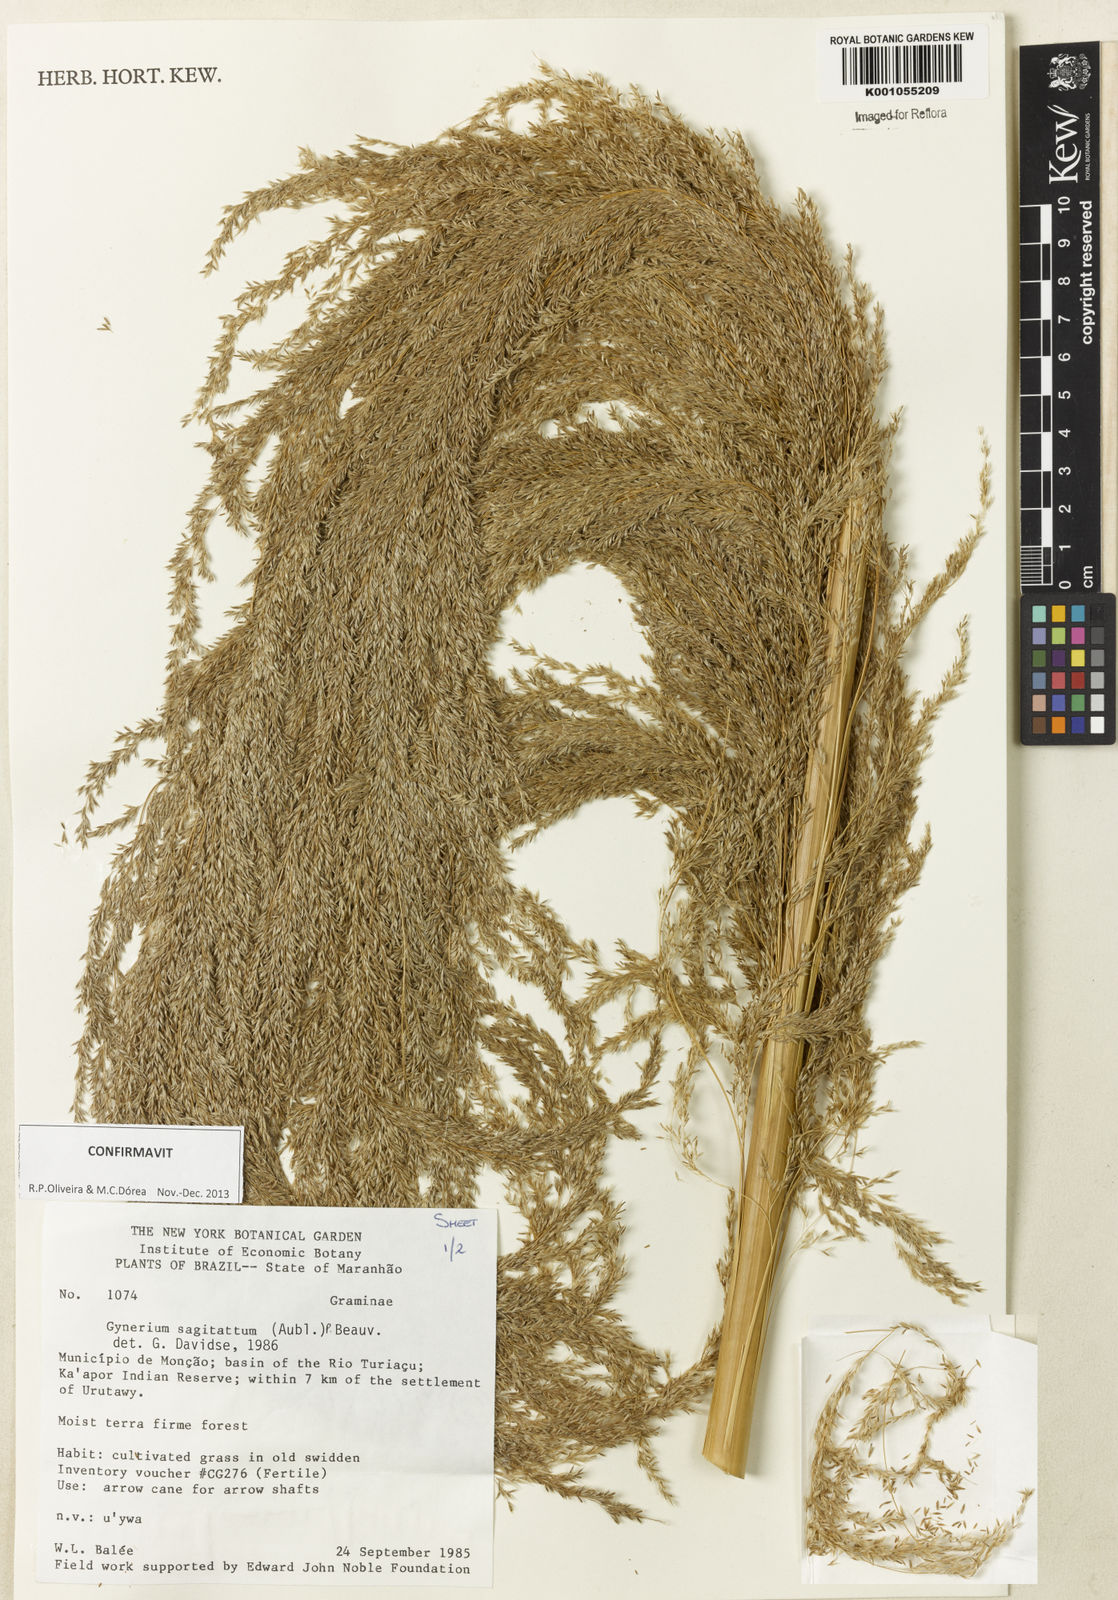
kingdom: Plantae
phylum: Tracheophyta
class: Liliopsida
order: Poales
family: Poaceae
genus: Gynerium
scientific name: Gynerium sagittatum
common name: Wild cane
